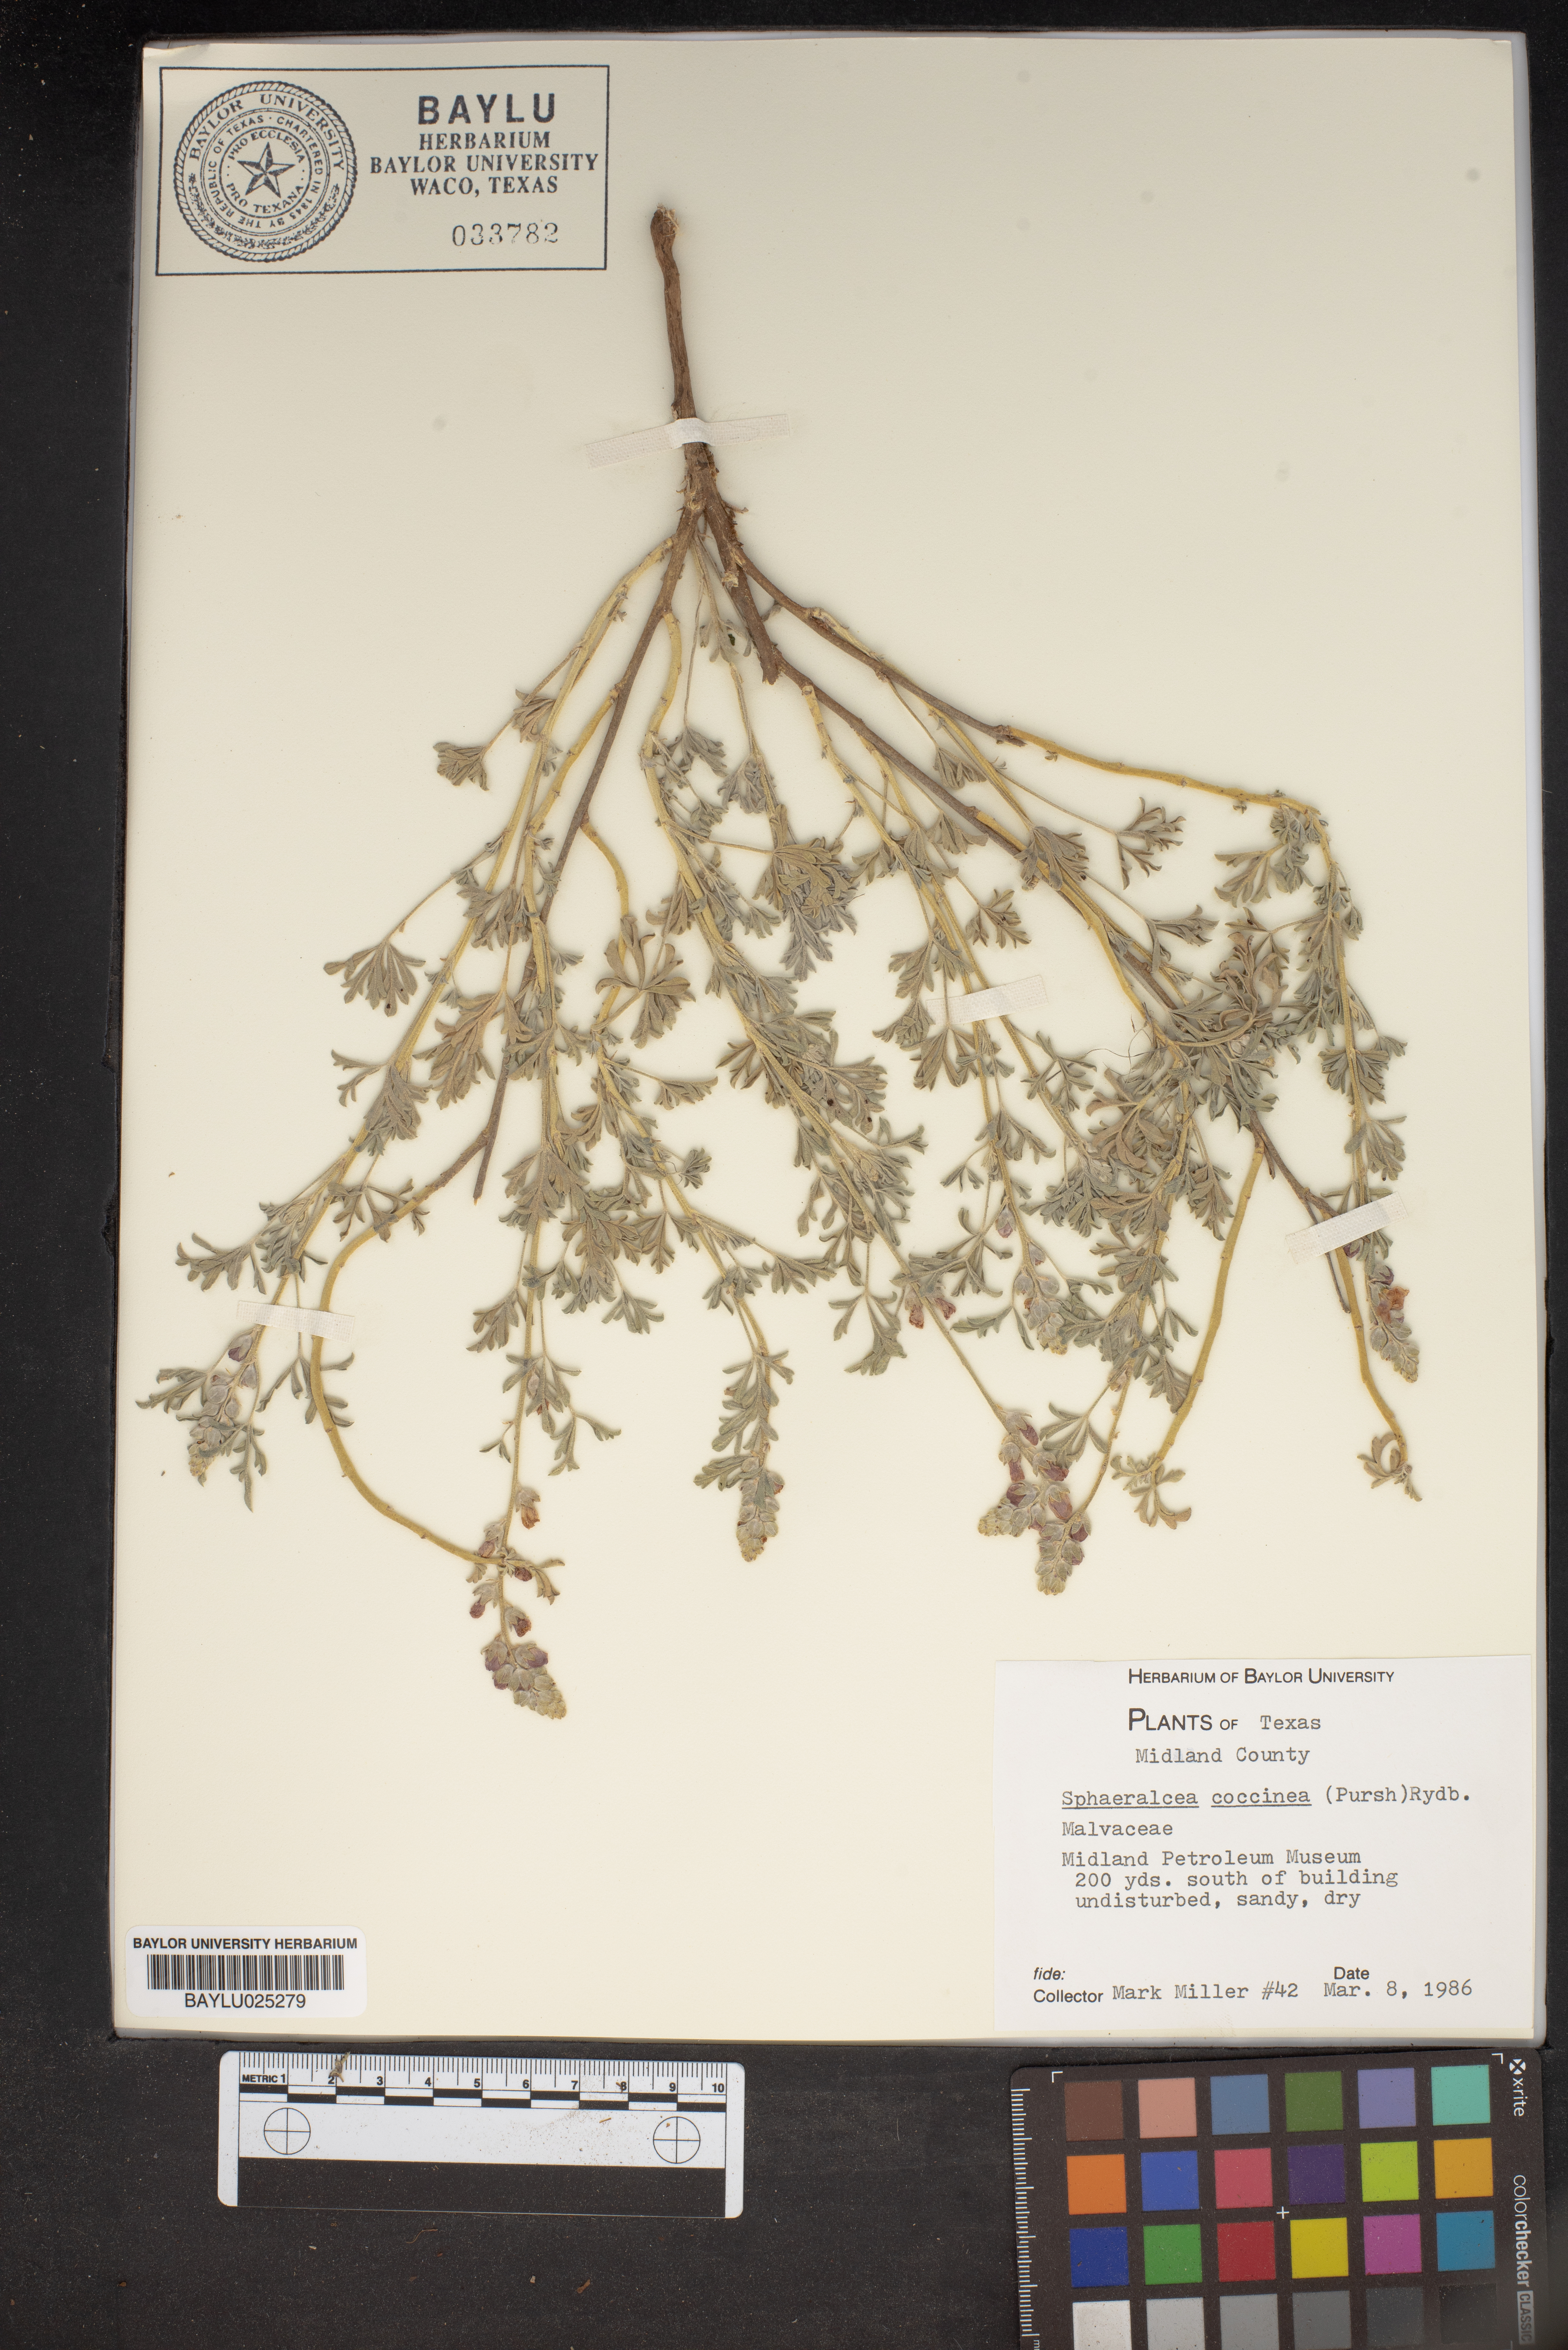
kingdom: Plantae
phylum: Tracheophyta
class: Magnoliopsida
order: Malvales
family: Malvaceae
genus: Sphaeralcea
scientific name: Sphaeralcea coccinea
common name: Moss-rose
